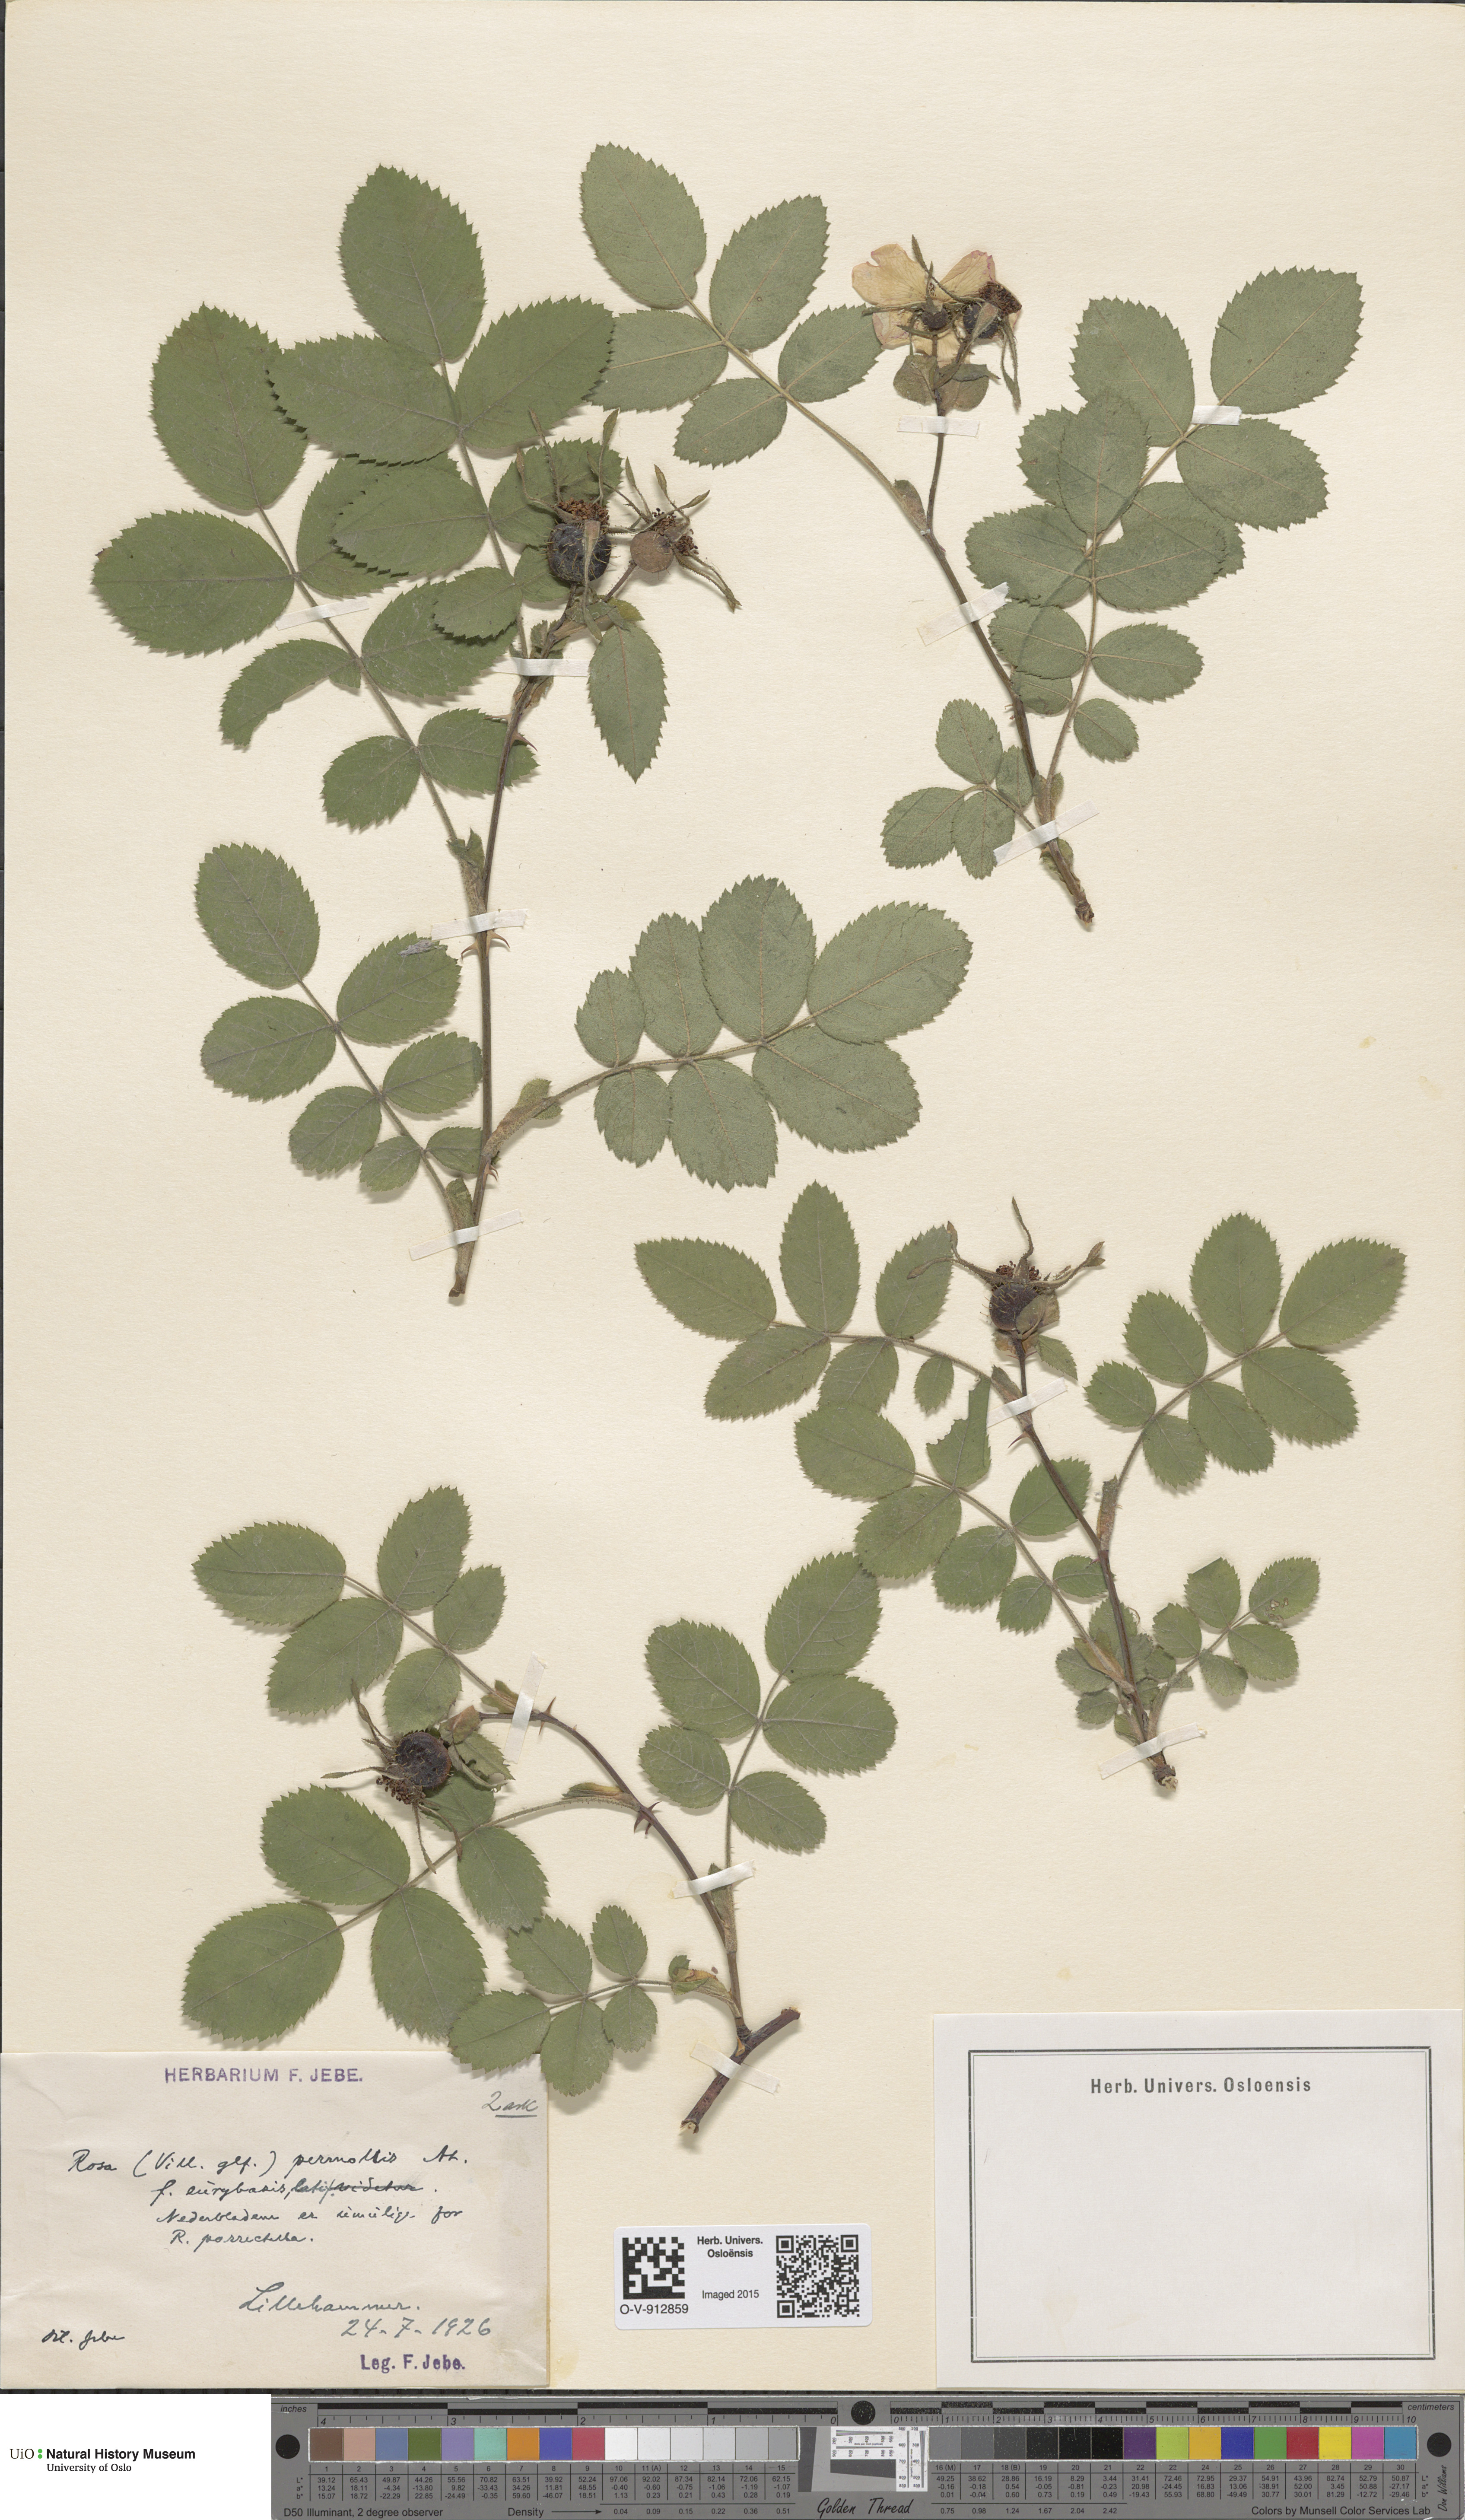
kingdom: Plantae
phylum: Tracheophyta
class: Magnoliopsida
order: Rosales
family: Rosaceae
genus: Rosa
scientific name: Rosa mollis
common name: Rose
